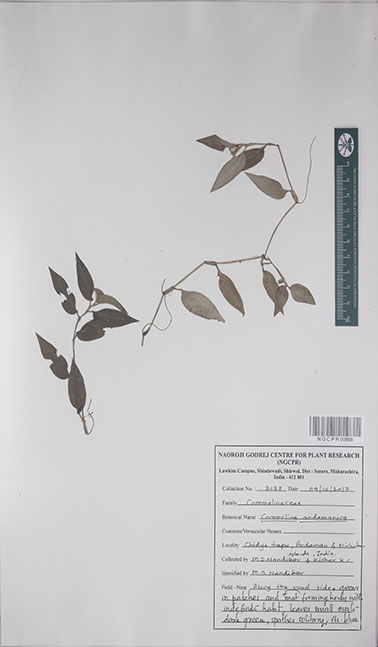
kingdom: Plantae
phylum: Tracheophyta
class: Liliopsida
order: Commelinales
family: Commelinaceae
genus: Commelina
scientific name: Commelina andamanica
